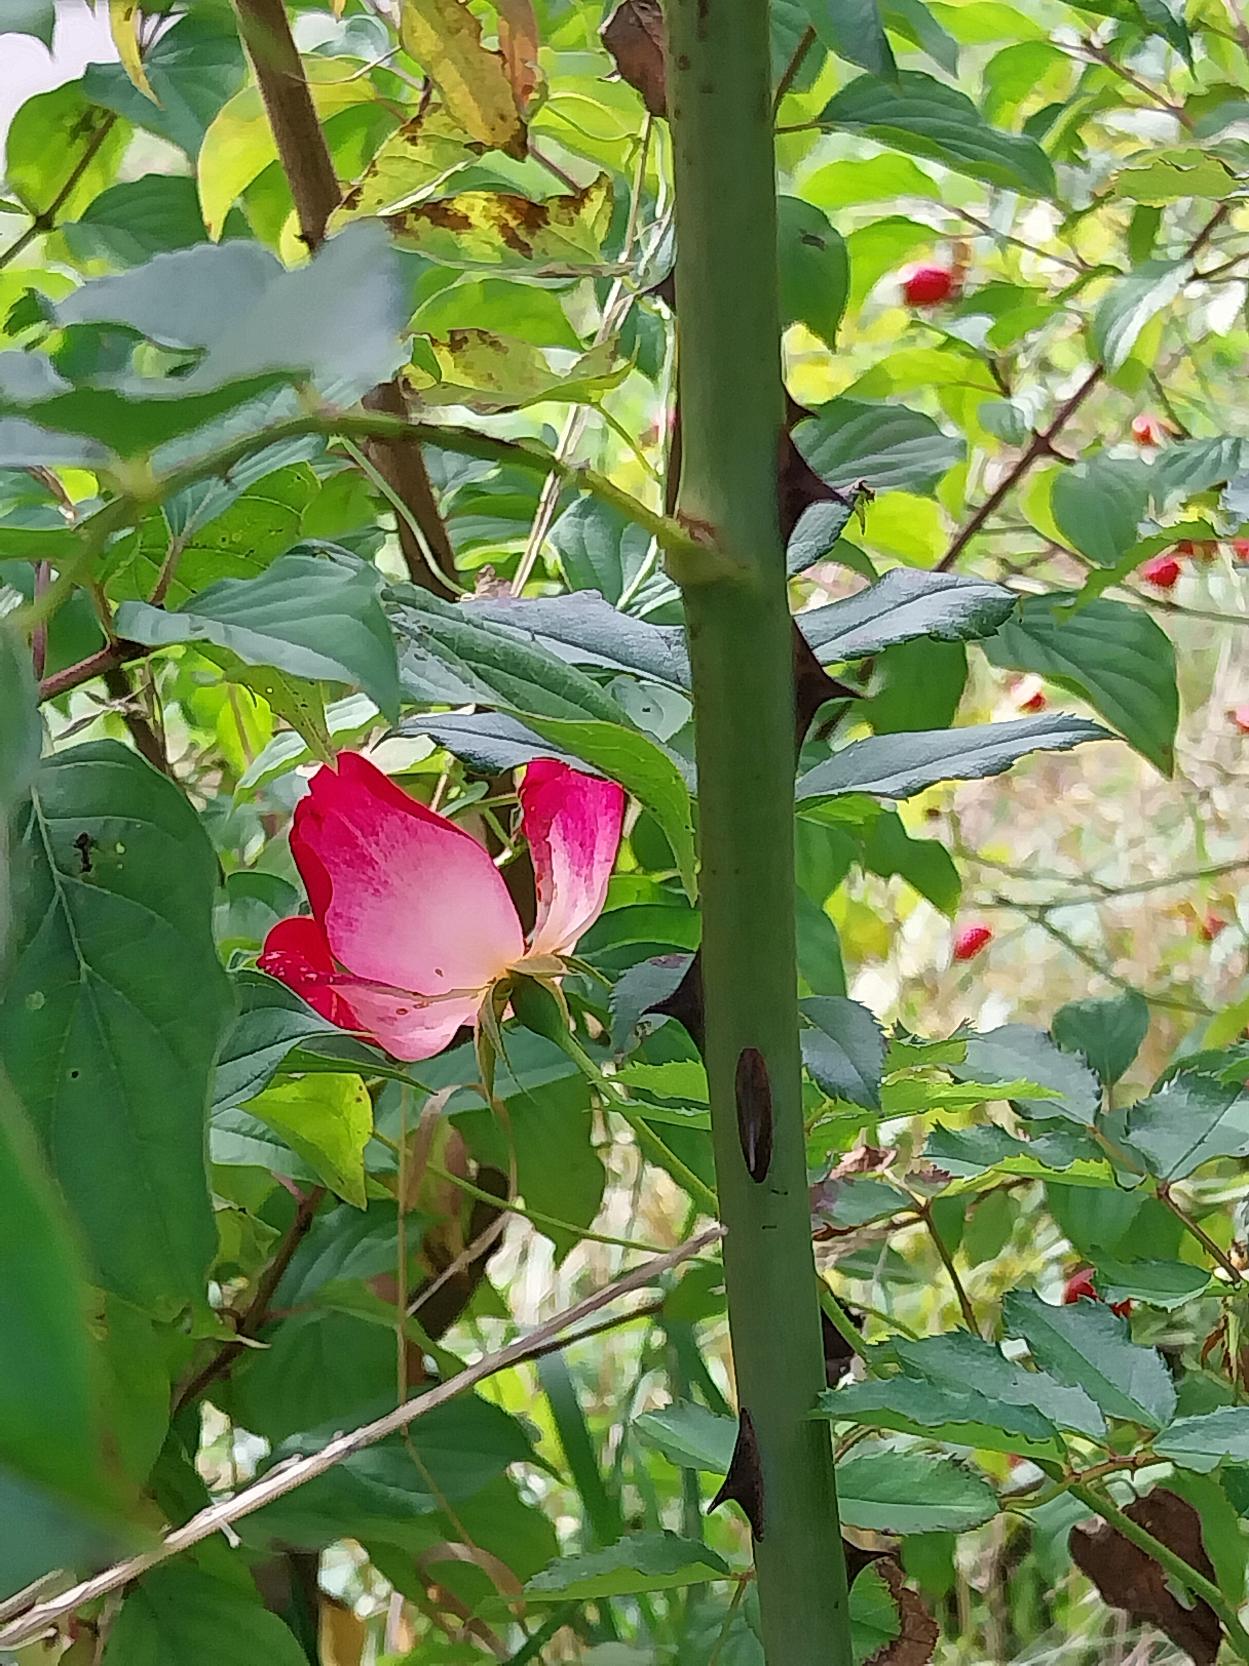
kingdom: Plantae
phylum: Tracheophyta
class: Magnoliopsida
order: Rosales
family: Rosaceae
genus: Rosa
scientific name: Rosa
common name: Roseslægten
